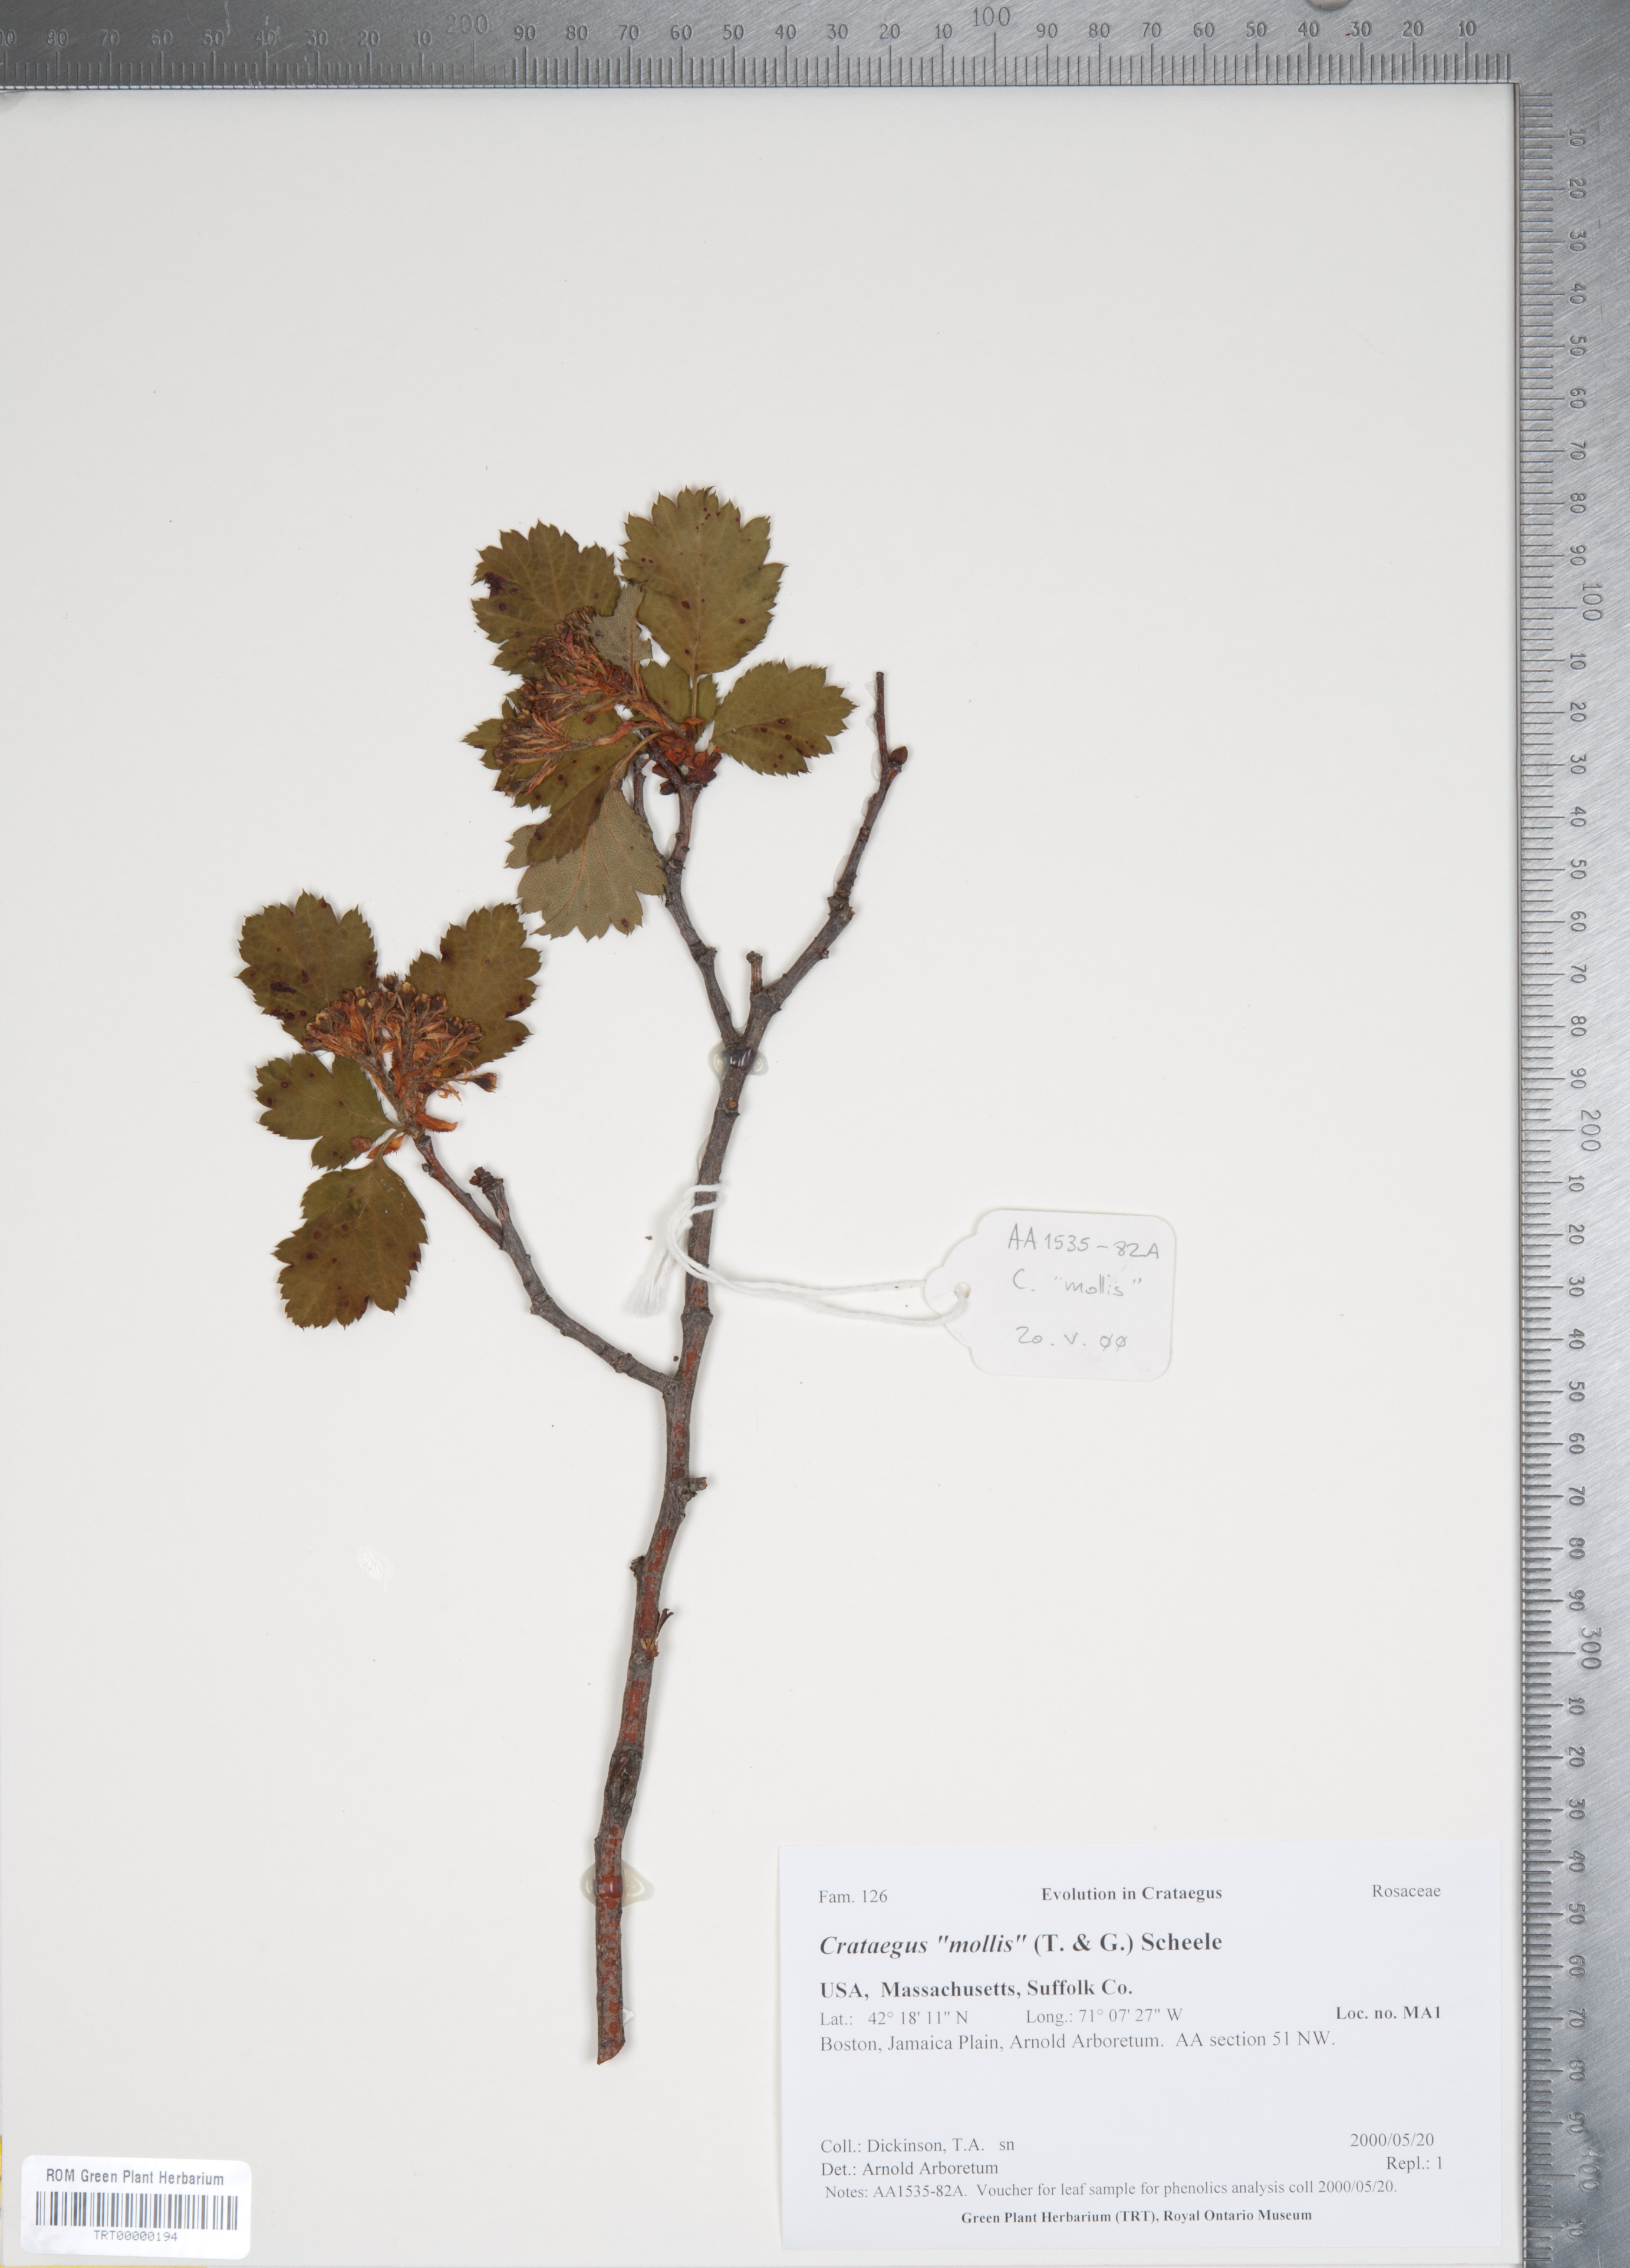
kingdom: Plantae
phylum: Tracheophyta
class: Magnoliopsida
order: Rosales
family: Rosaceae
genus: Crataegus
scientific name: Crataegus mollis
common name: Downy hawthorn
